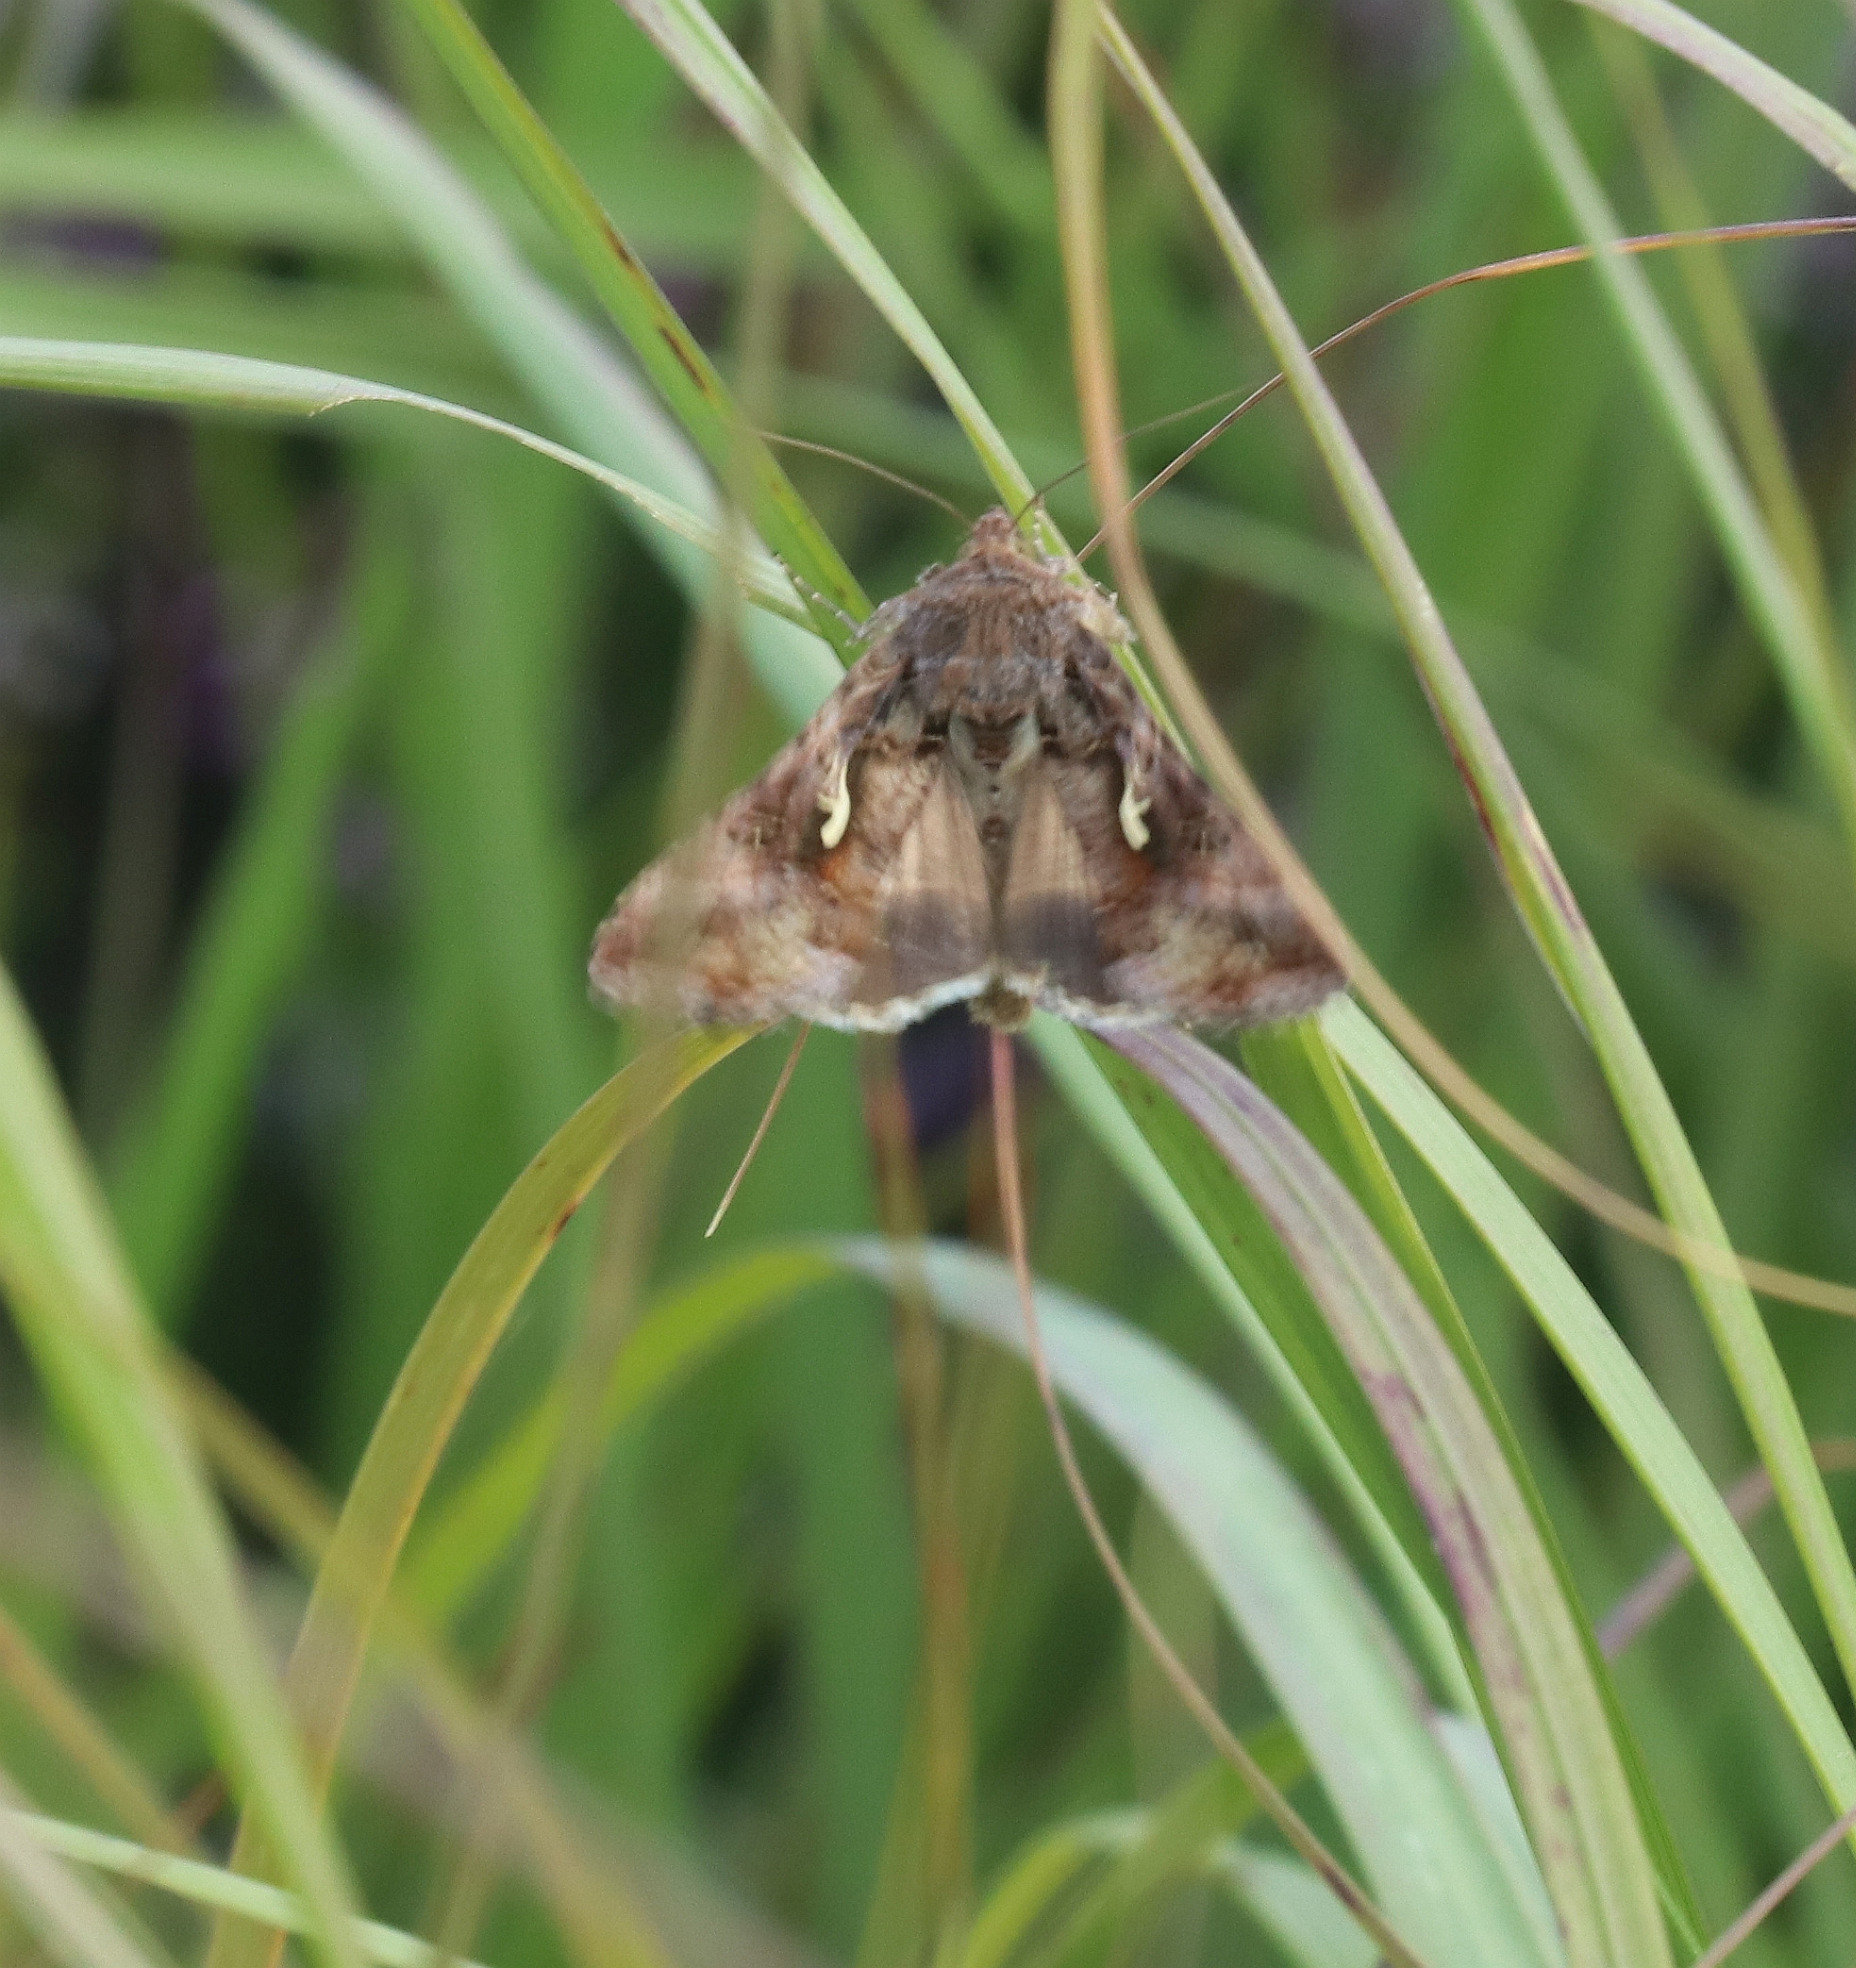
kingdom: Animalia
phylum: Arthropoda
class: Insecta
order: Lepidoptera
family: Noctuidae
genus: Autographa
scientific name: Autographa gamma
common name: Gammaugle
